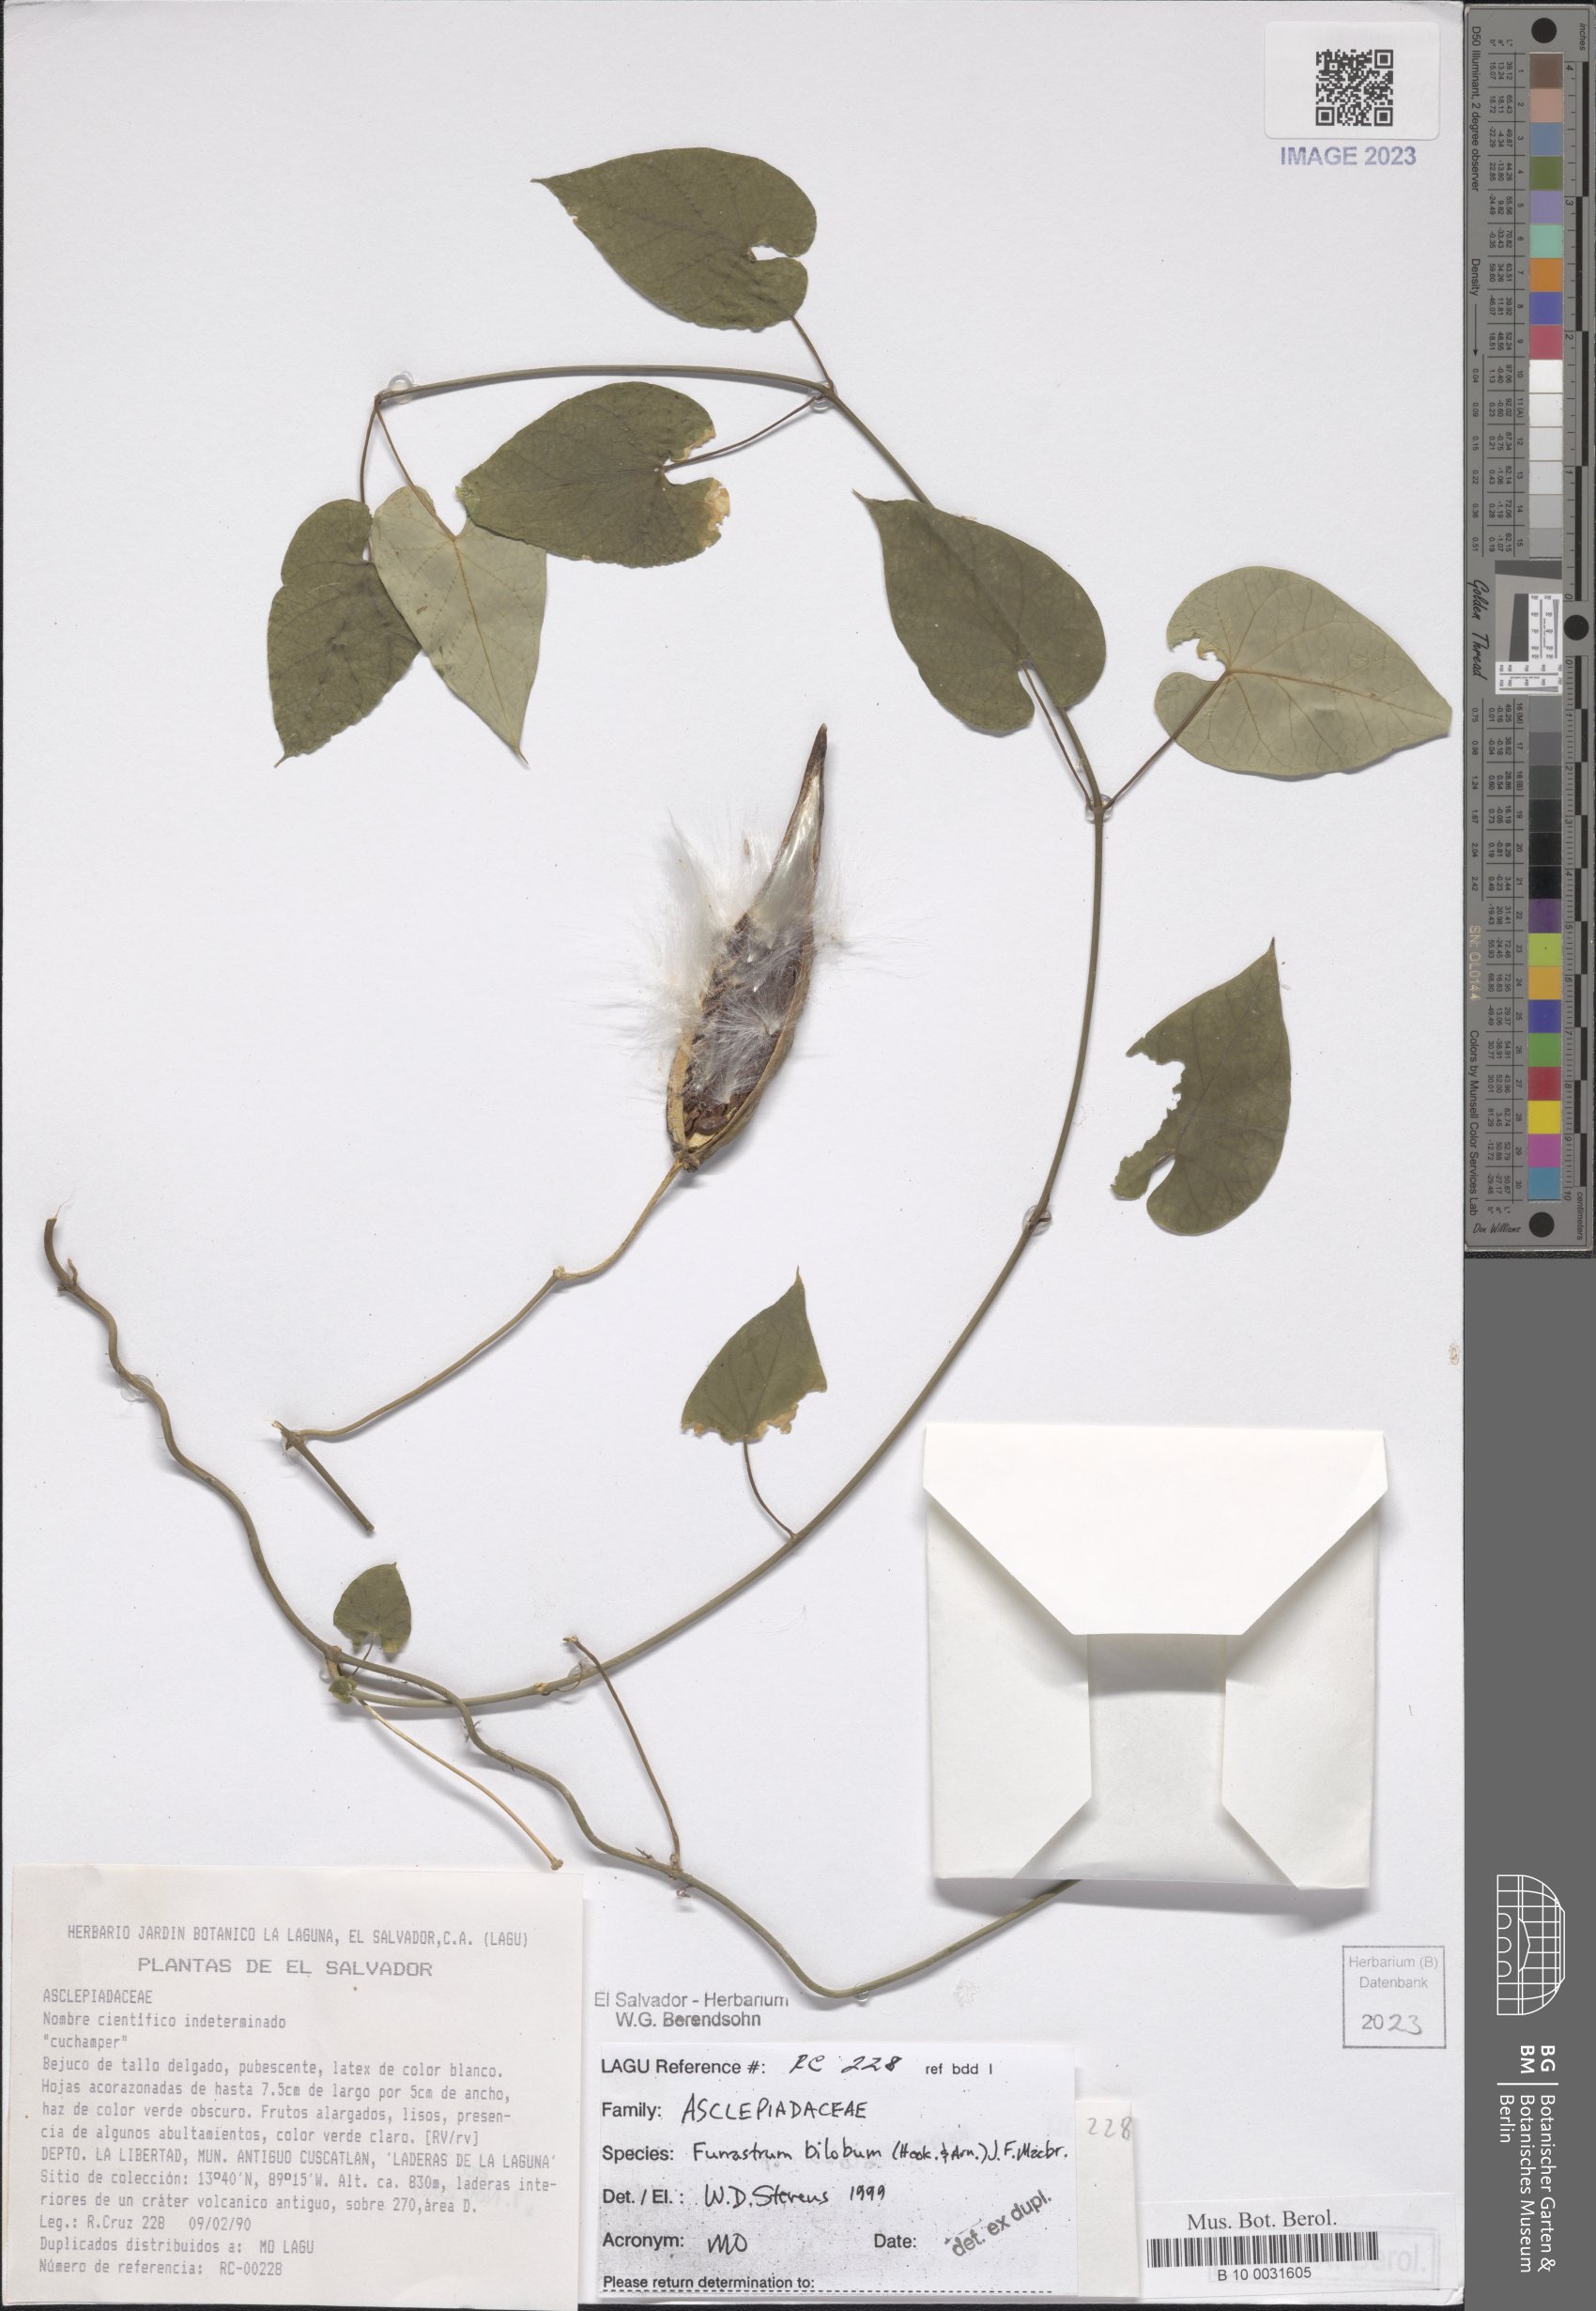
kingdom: Plantae
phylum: Tracheophyta
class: Magnoliopsida
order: Gentianales
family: Apocynaceae
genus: Funastrum
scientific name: Funastrum bilobum
